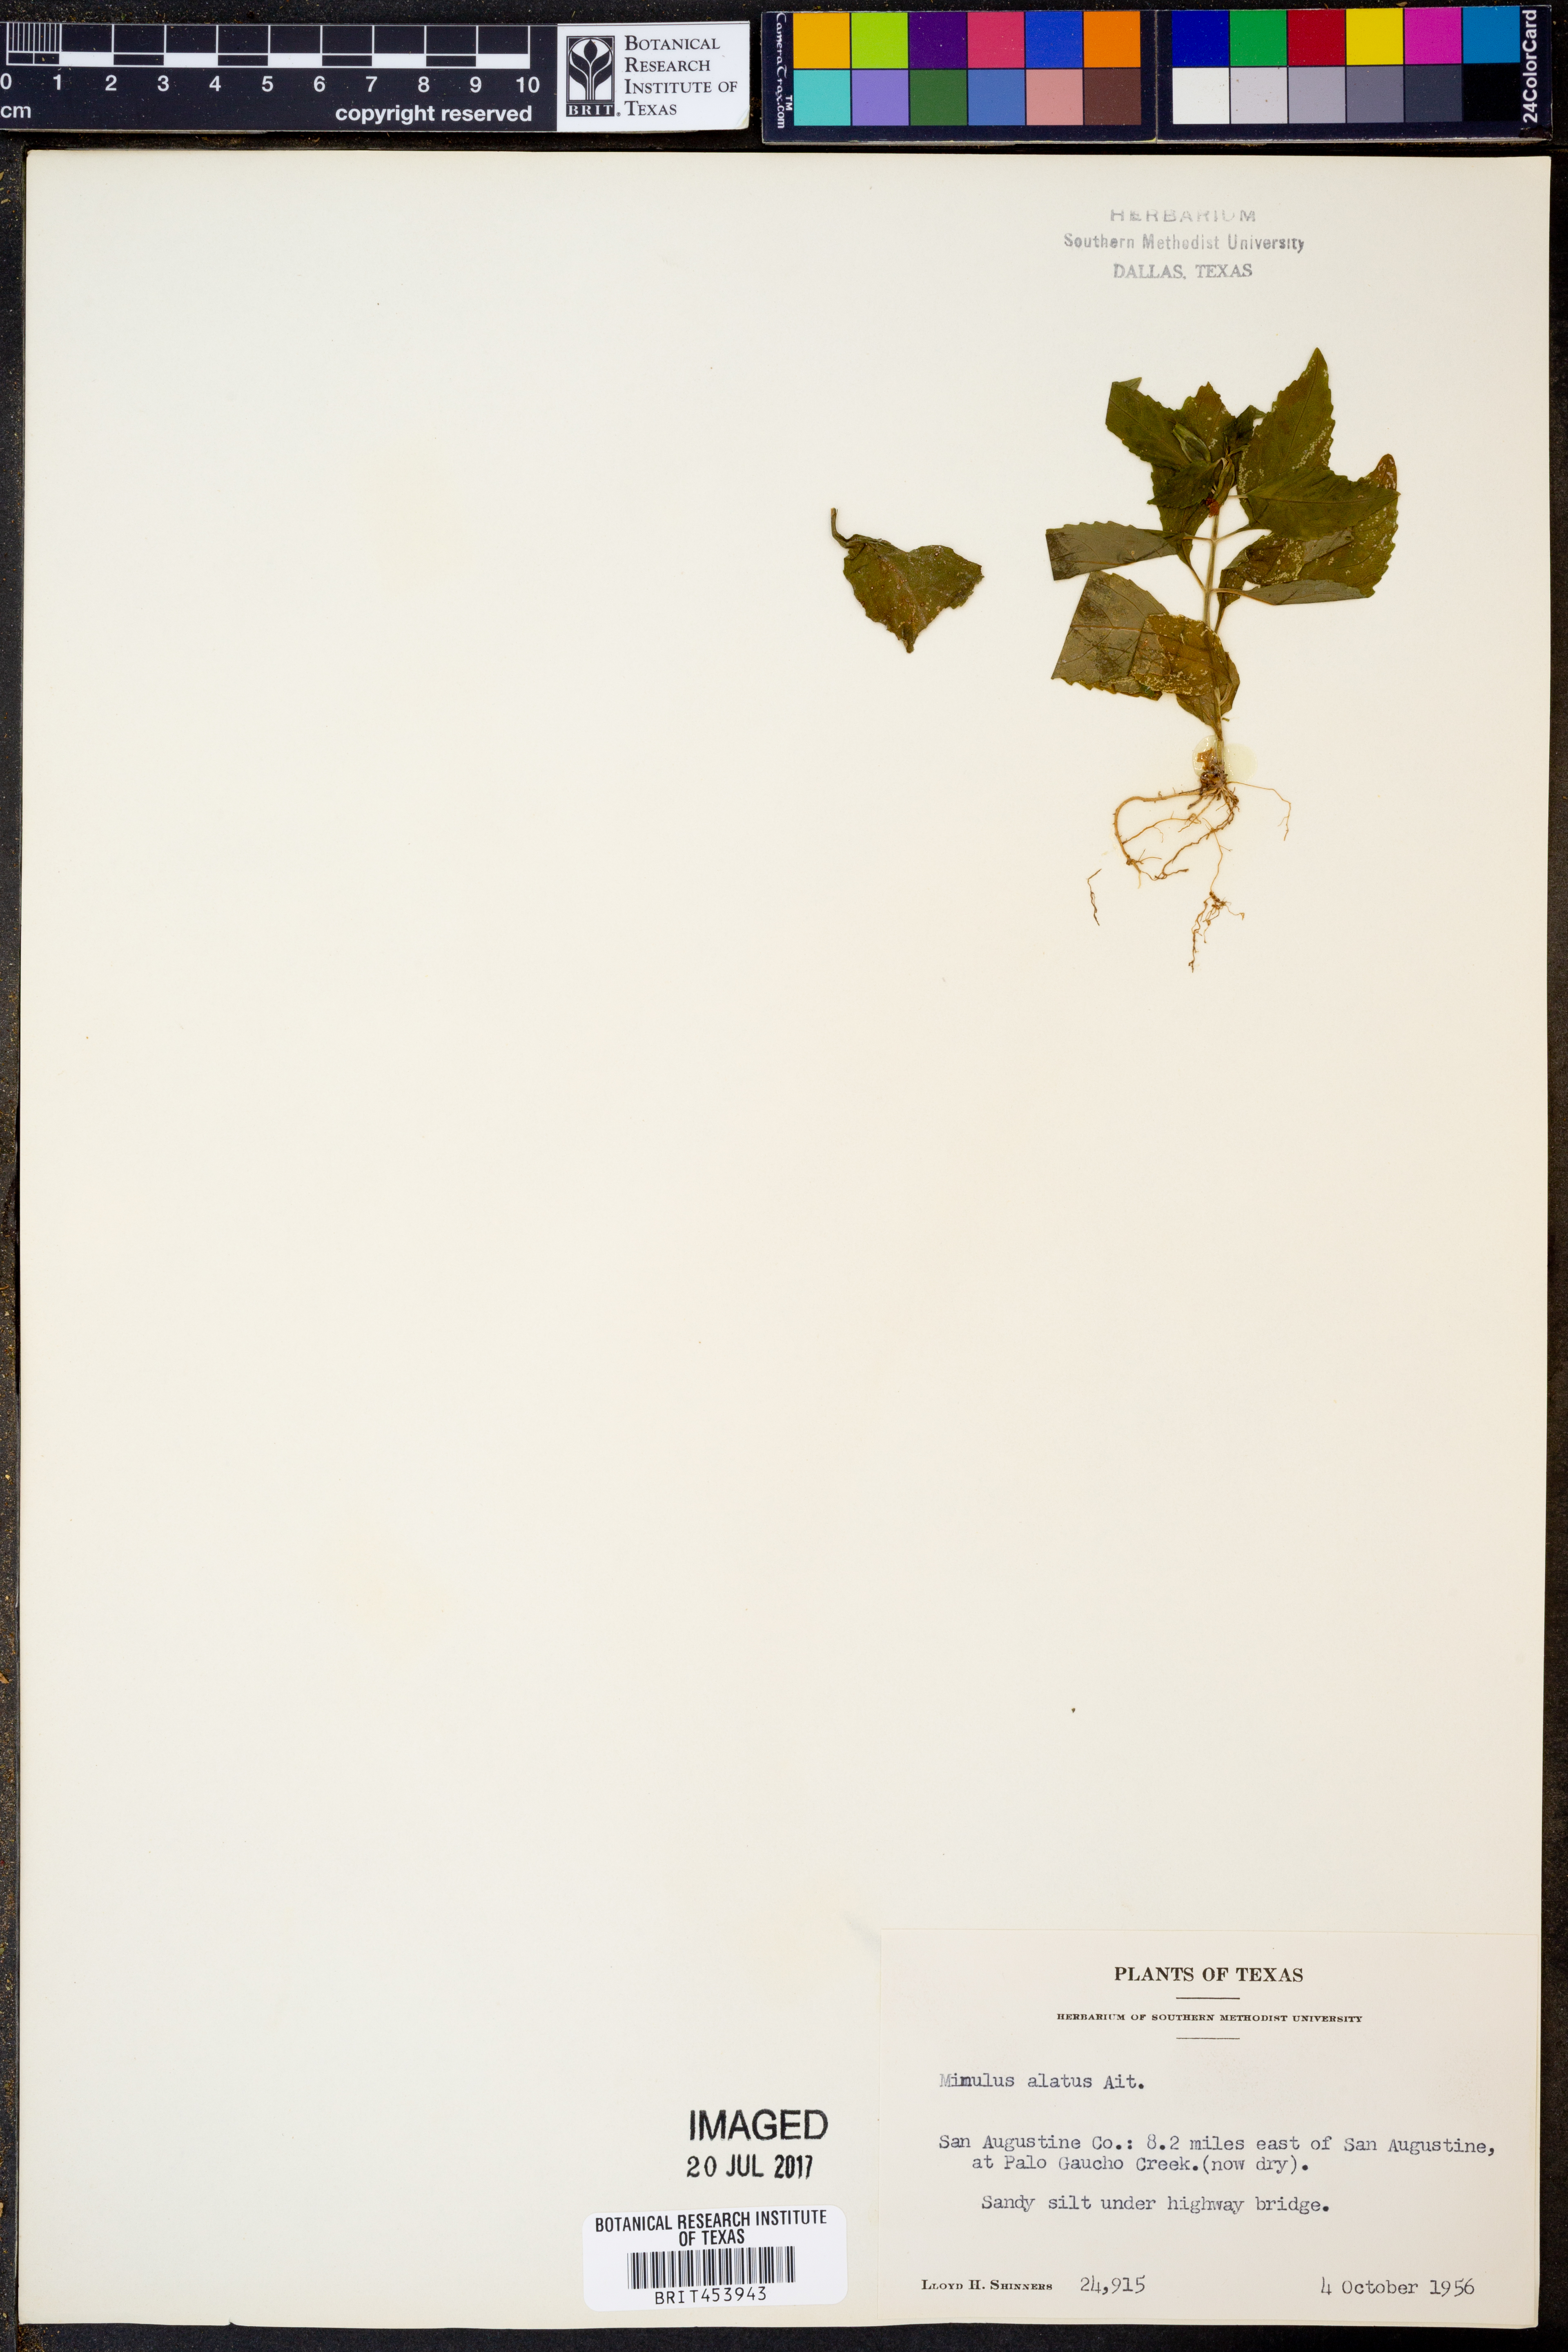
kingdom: Plantae
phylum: Tracheophyta
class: Magnoliopsida
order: Lamiales
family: Phrymaceae
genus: Mimulus
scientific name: Mimulus alatus
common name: Sharp-wing monkey-flower
